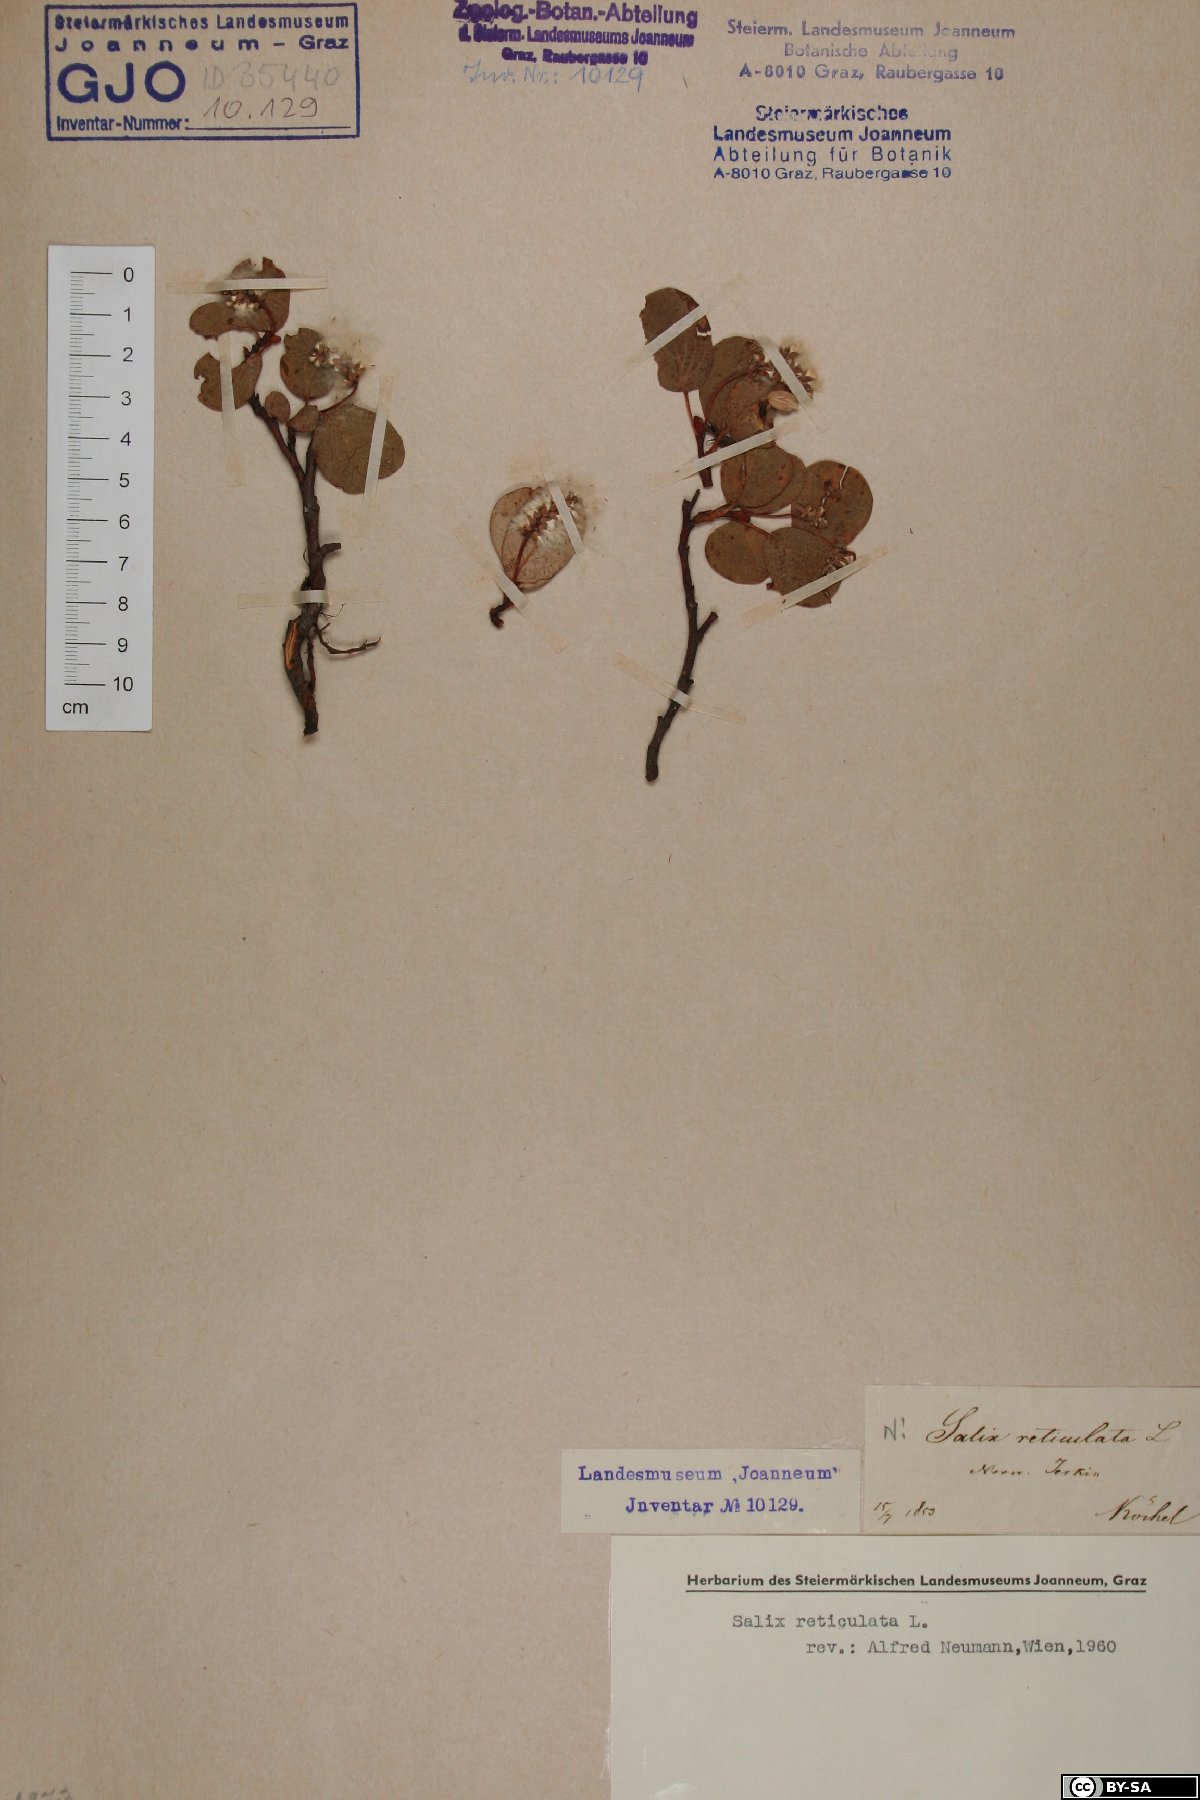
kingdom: Plantae
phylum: Tracheophyta
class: Magnoliopsida
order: Malpighiales
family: Salicaceae
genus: Salix
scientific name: Salix reticulata
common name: Net-leaved willow
